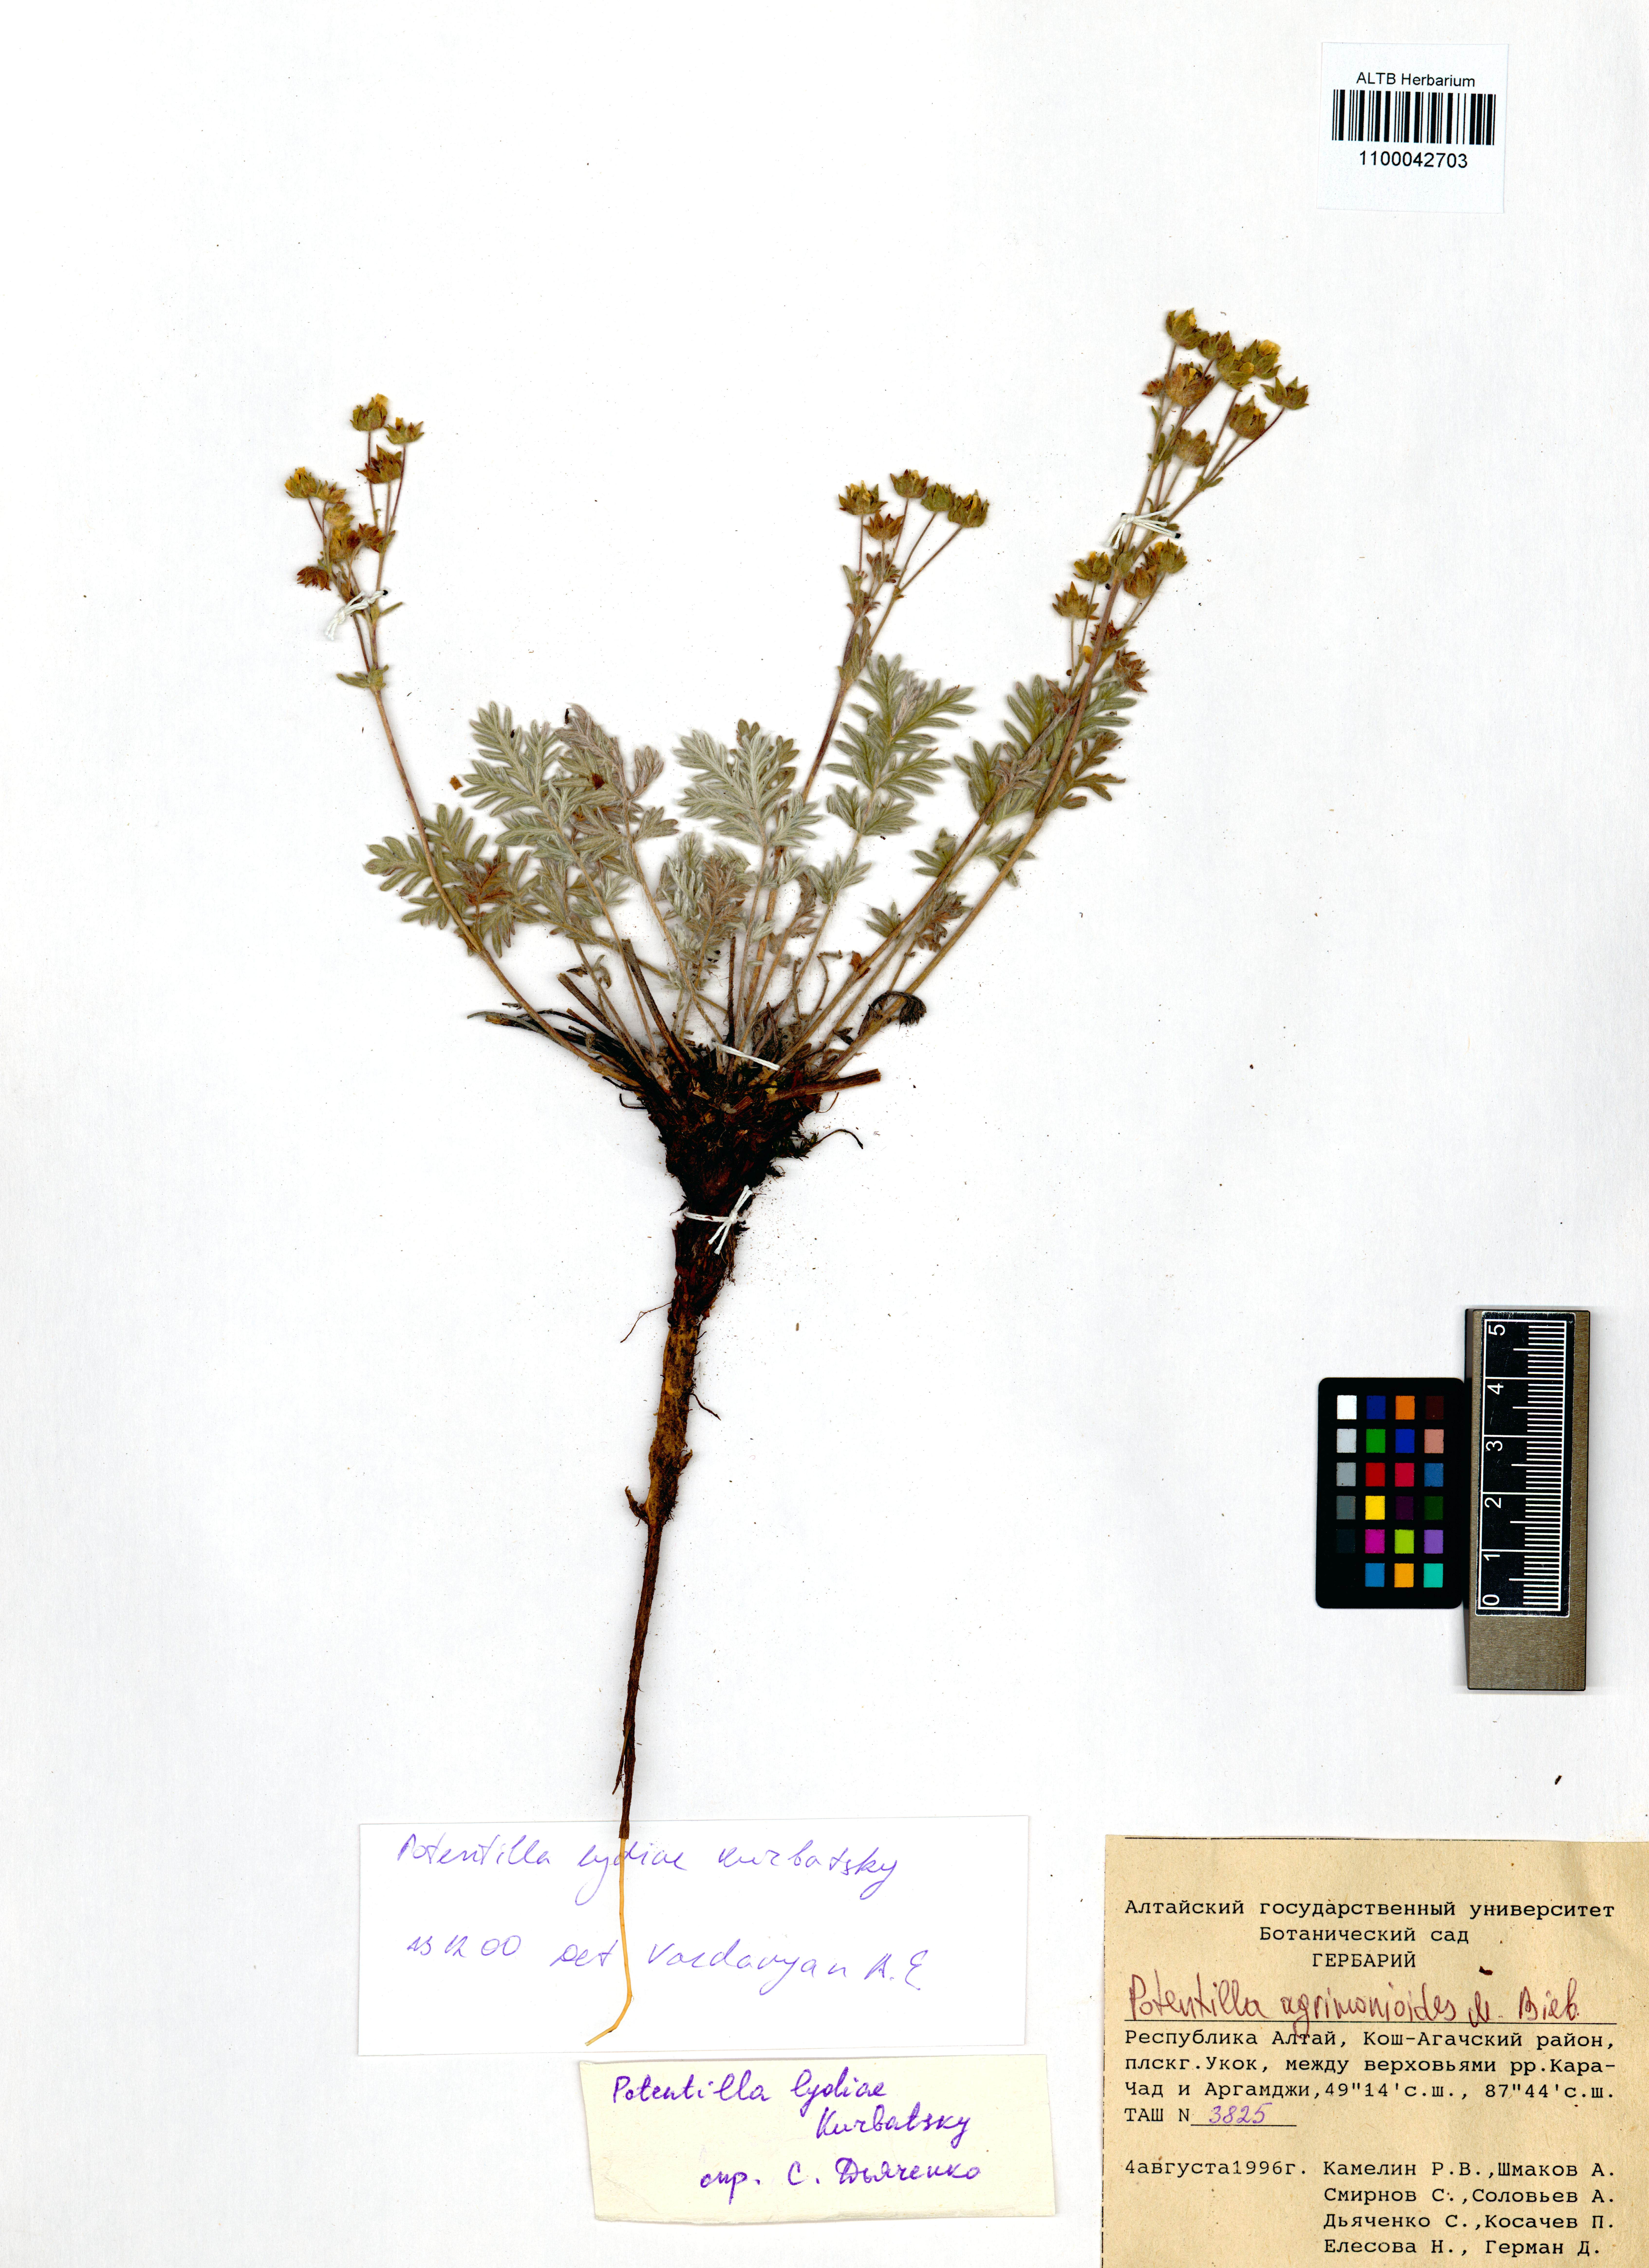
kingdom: Plantae
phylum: Tracheophyta
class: Magnoliopsida
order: Rosales
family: Rosaceae
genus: Potentilla
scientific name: Potentilla agrimonioides
